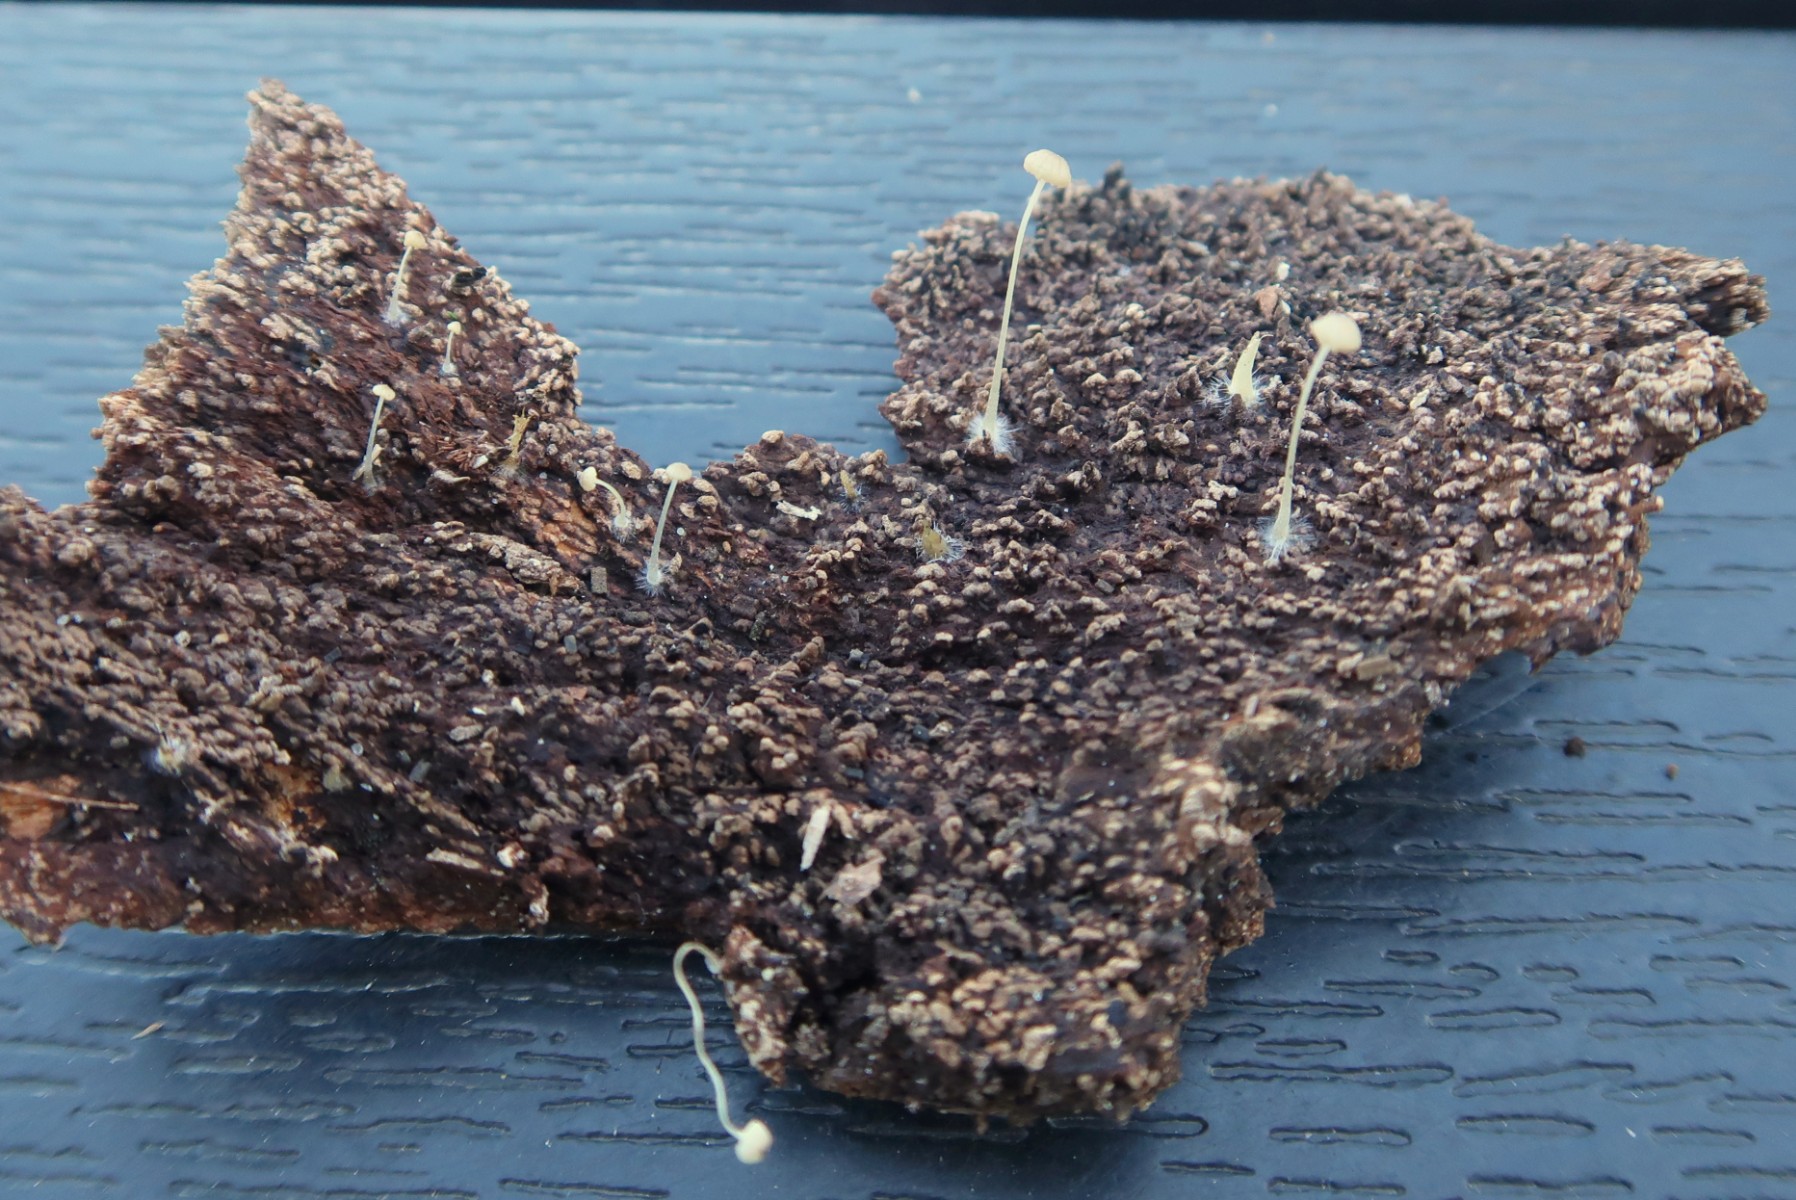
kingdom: Fungi
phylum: Basidiomycota
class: Agaricomycetes
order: Agaricales
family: Porotheleaceae
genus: Phloeomana
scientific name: Phloeomana speirea
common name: kvist-huesvamp
